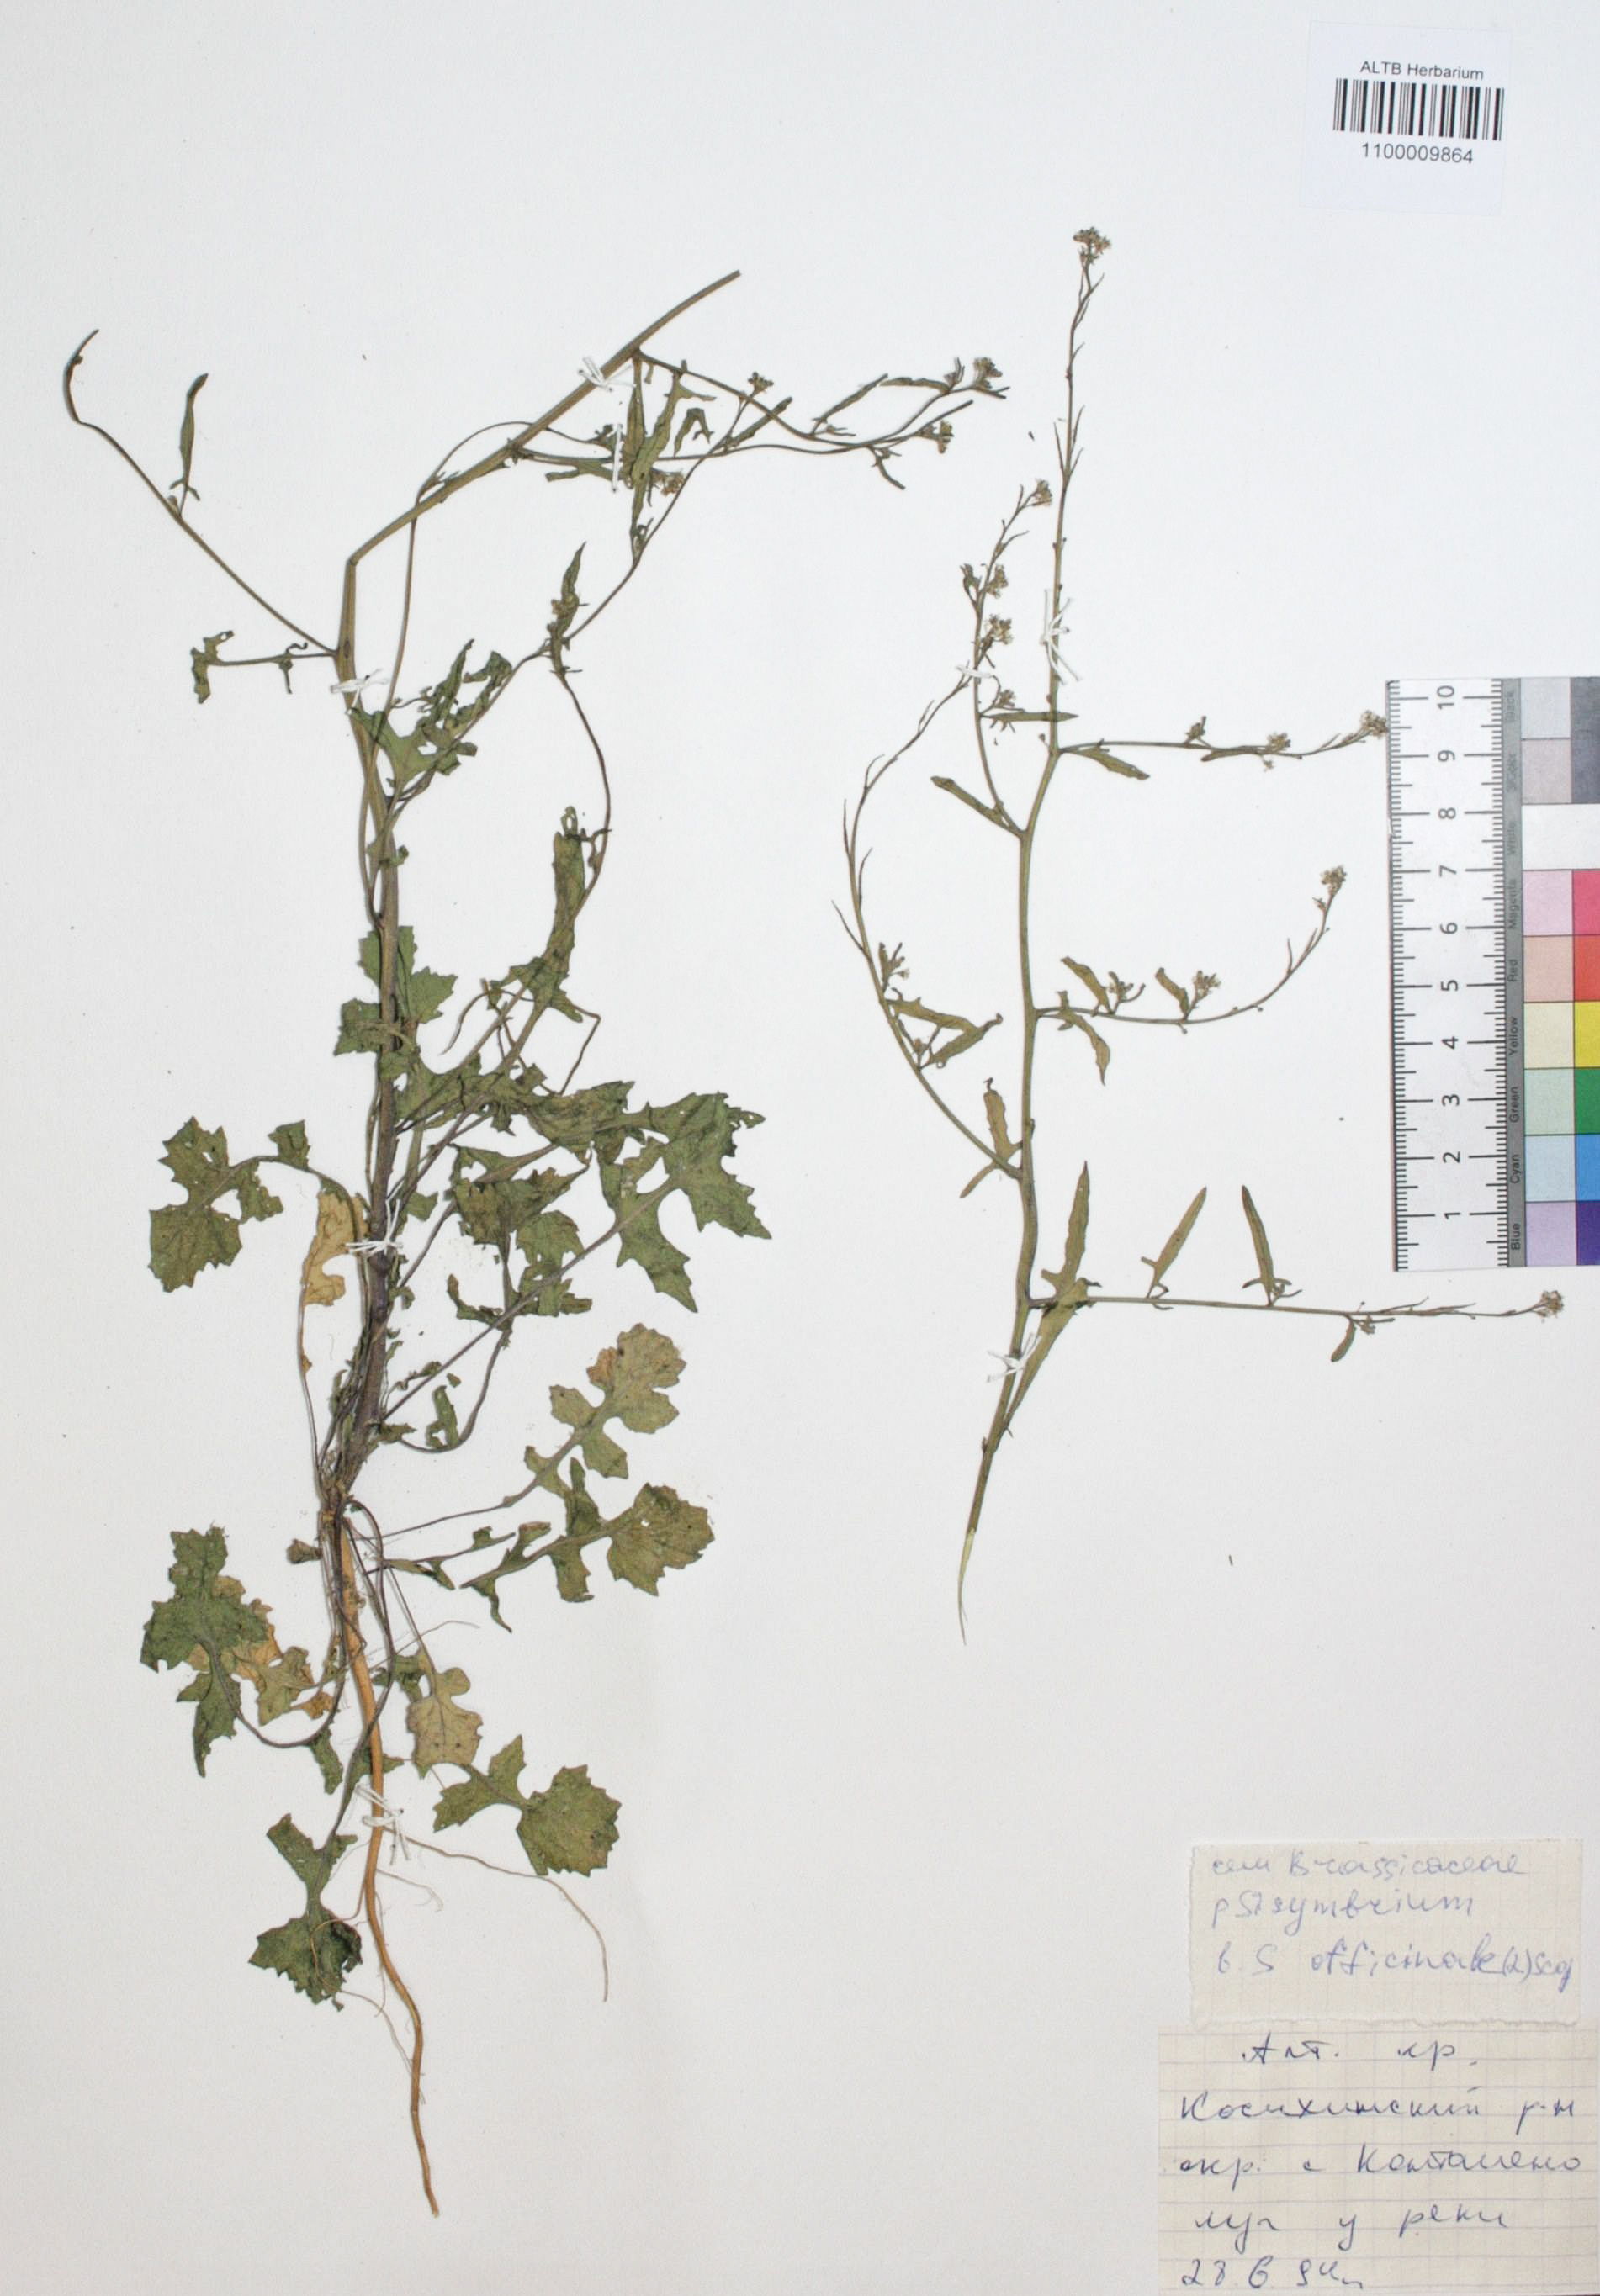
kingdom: Plantae
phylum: Tracheophyta
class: Magnoliopsida
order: Brassicales
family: Brassicaceae
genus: Sisymbrium
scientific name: Sisymbrium officinale
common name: Hedge mustard
